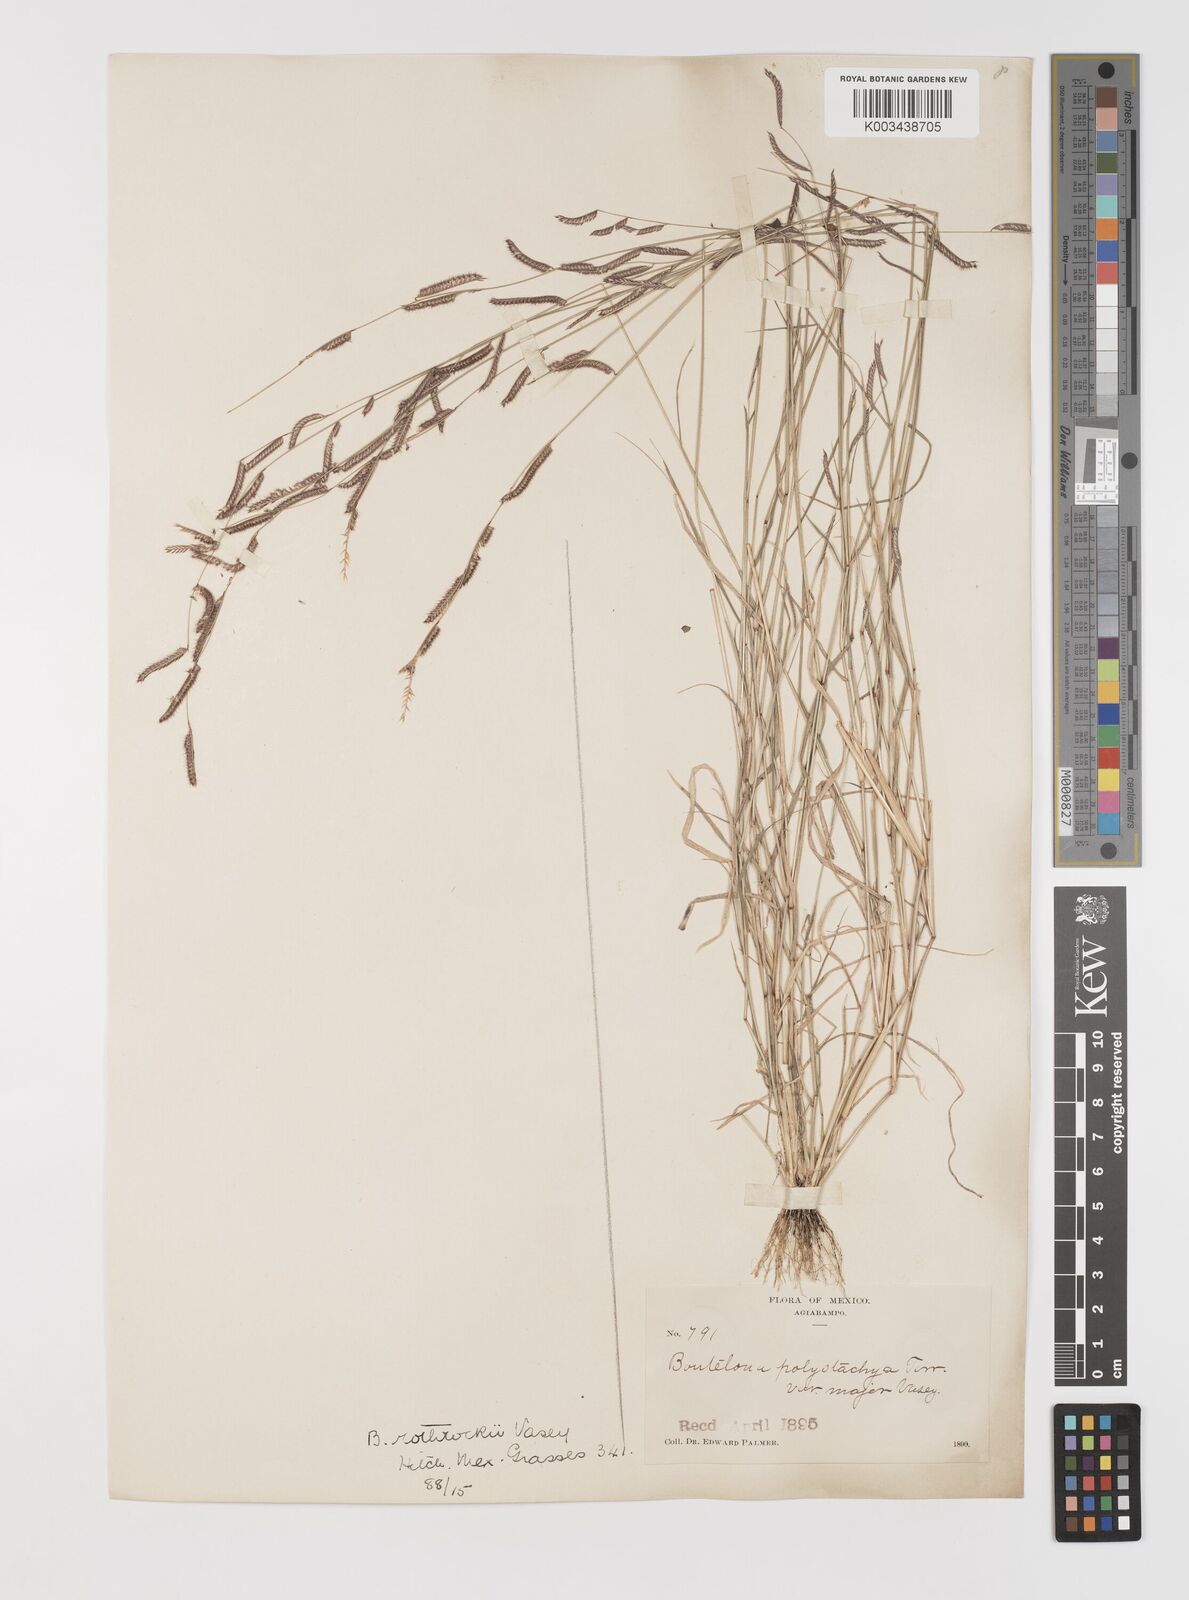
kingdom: Plantae
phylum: Tracheophyta
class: Liliopsida
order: Poales
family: Poaceae
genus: Bouteloua
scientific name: Bouteloua barbata
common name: Six-weeks grama
